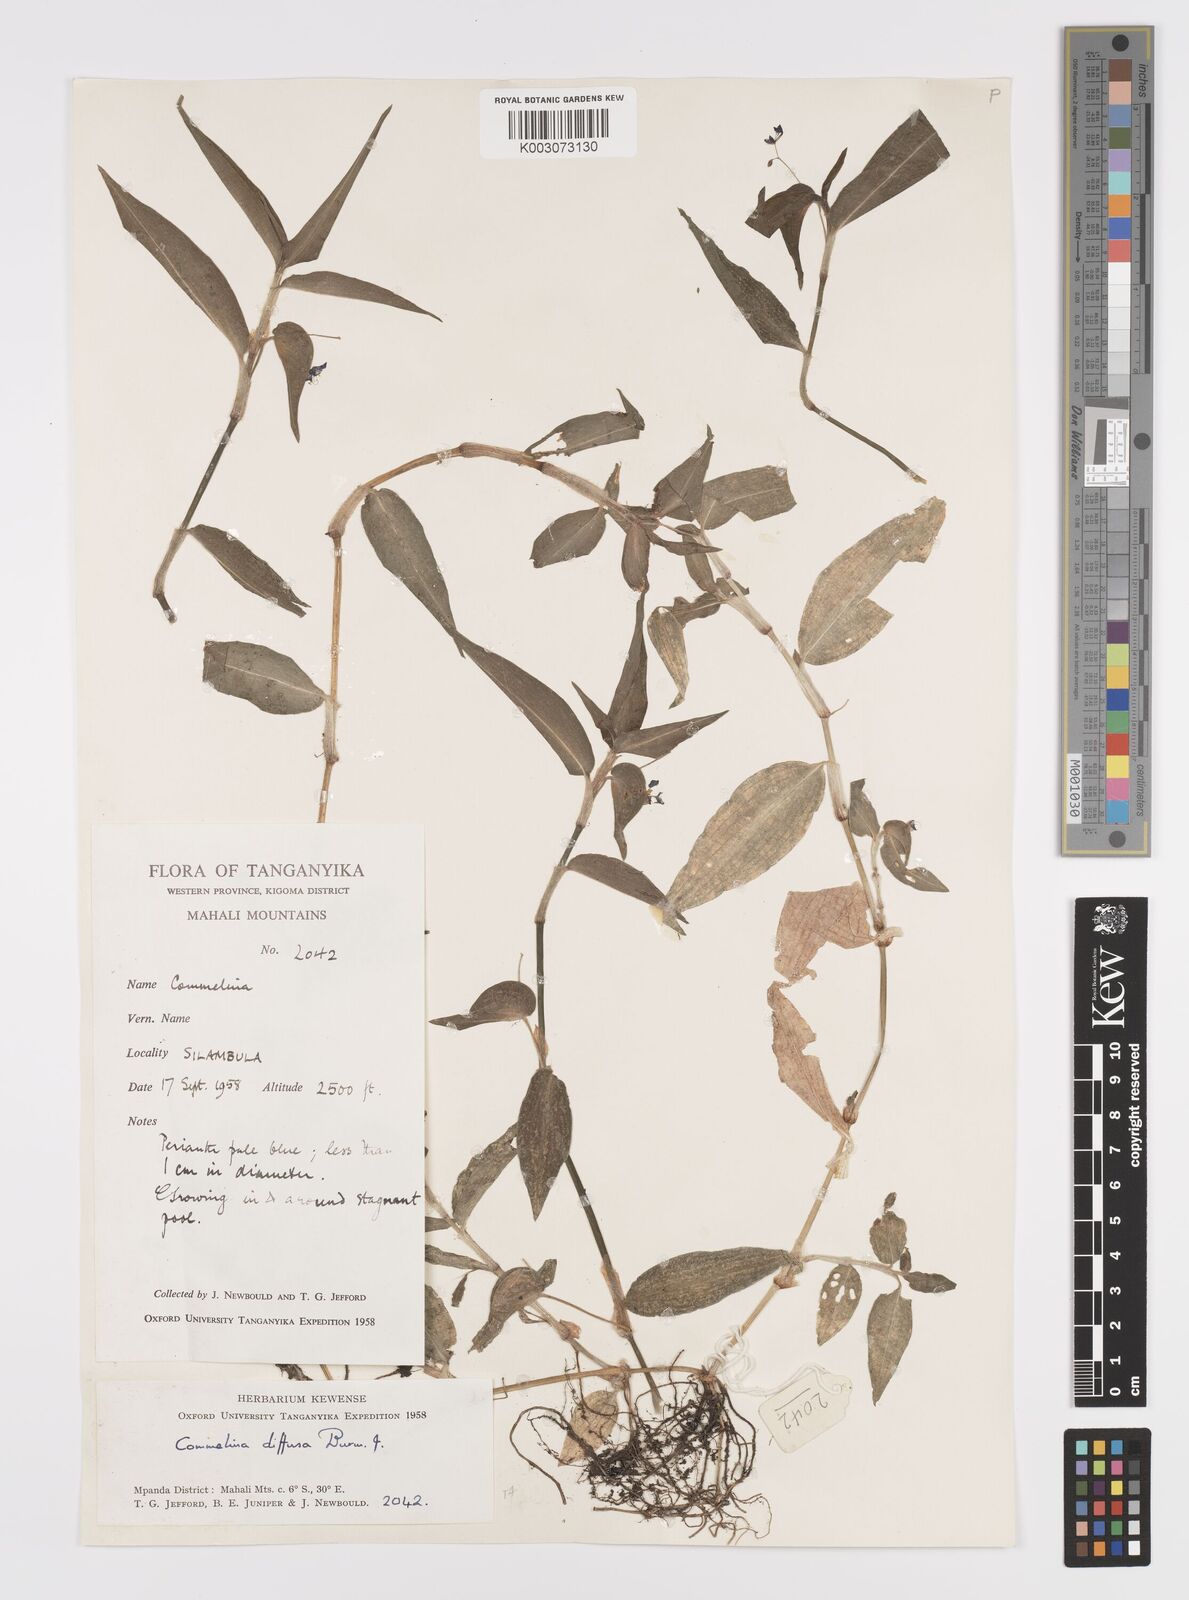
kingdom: Plantae
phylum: Tracheophyta
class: Liliopsida
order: Commelinales
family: Commelinaceae
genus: Commelina
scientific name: Commelina diffusa
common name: Climbing dayflower
